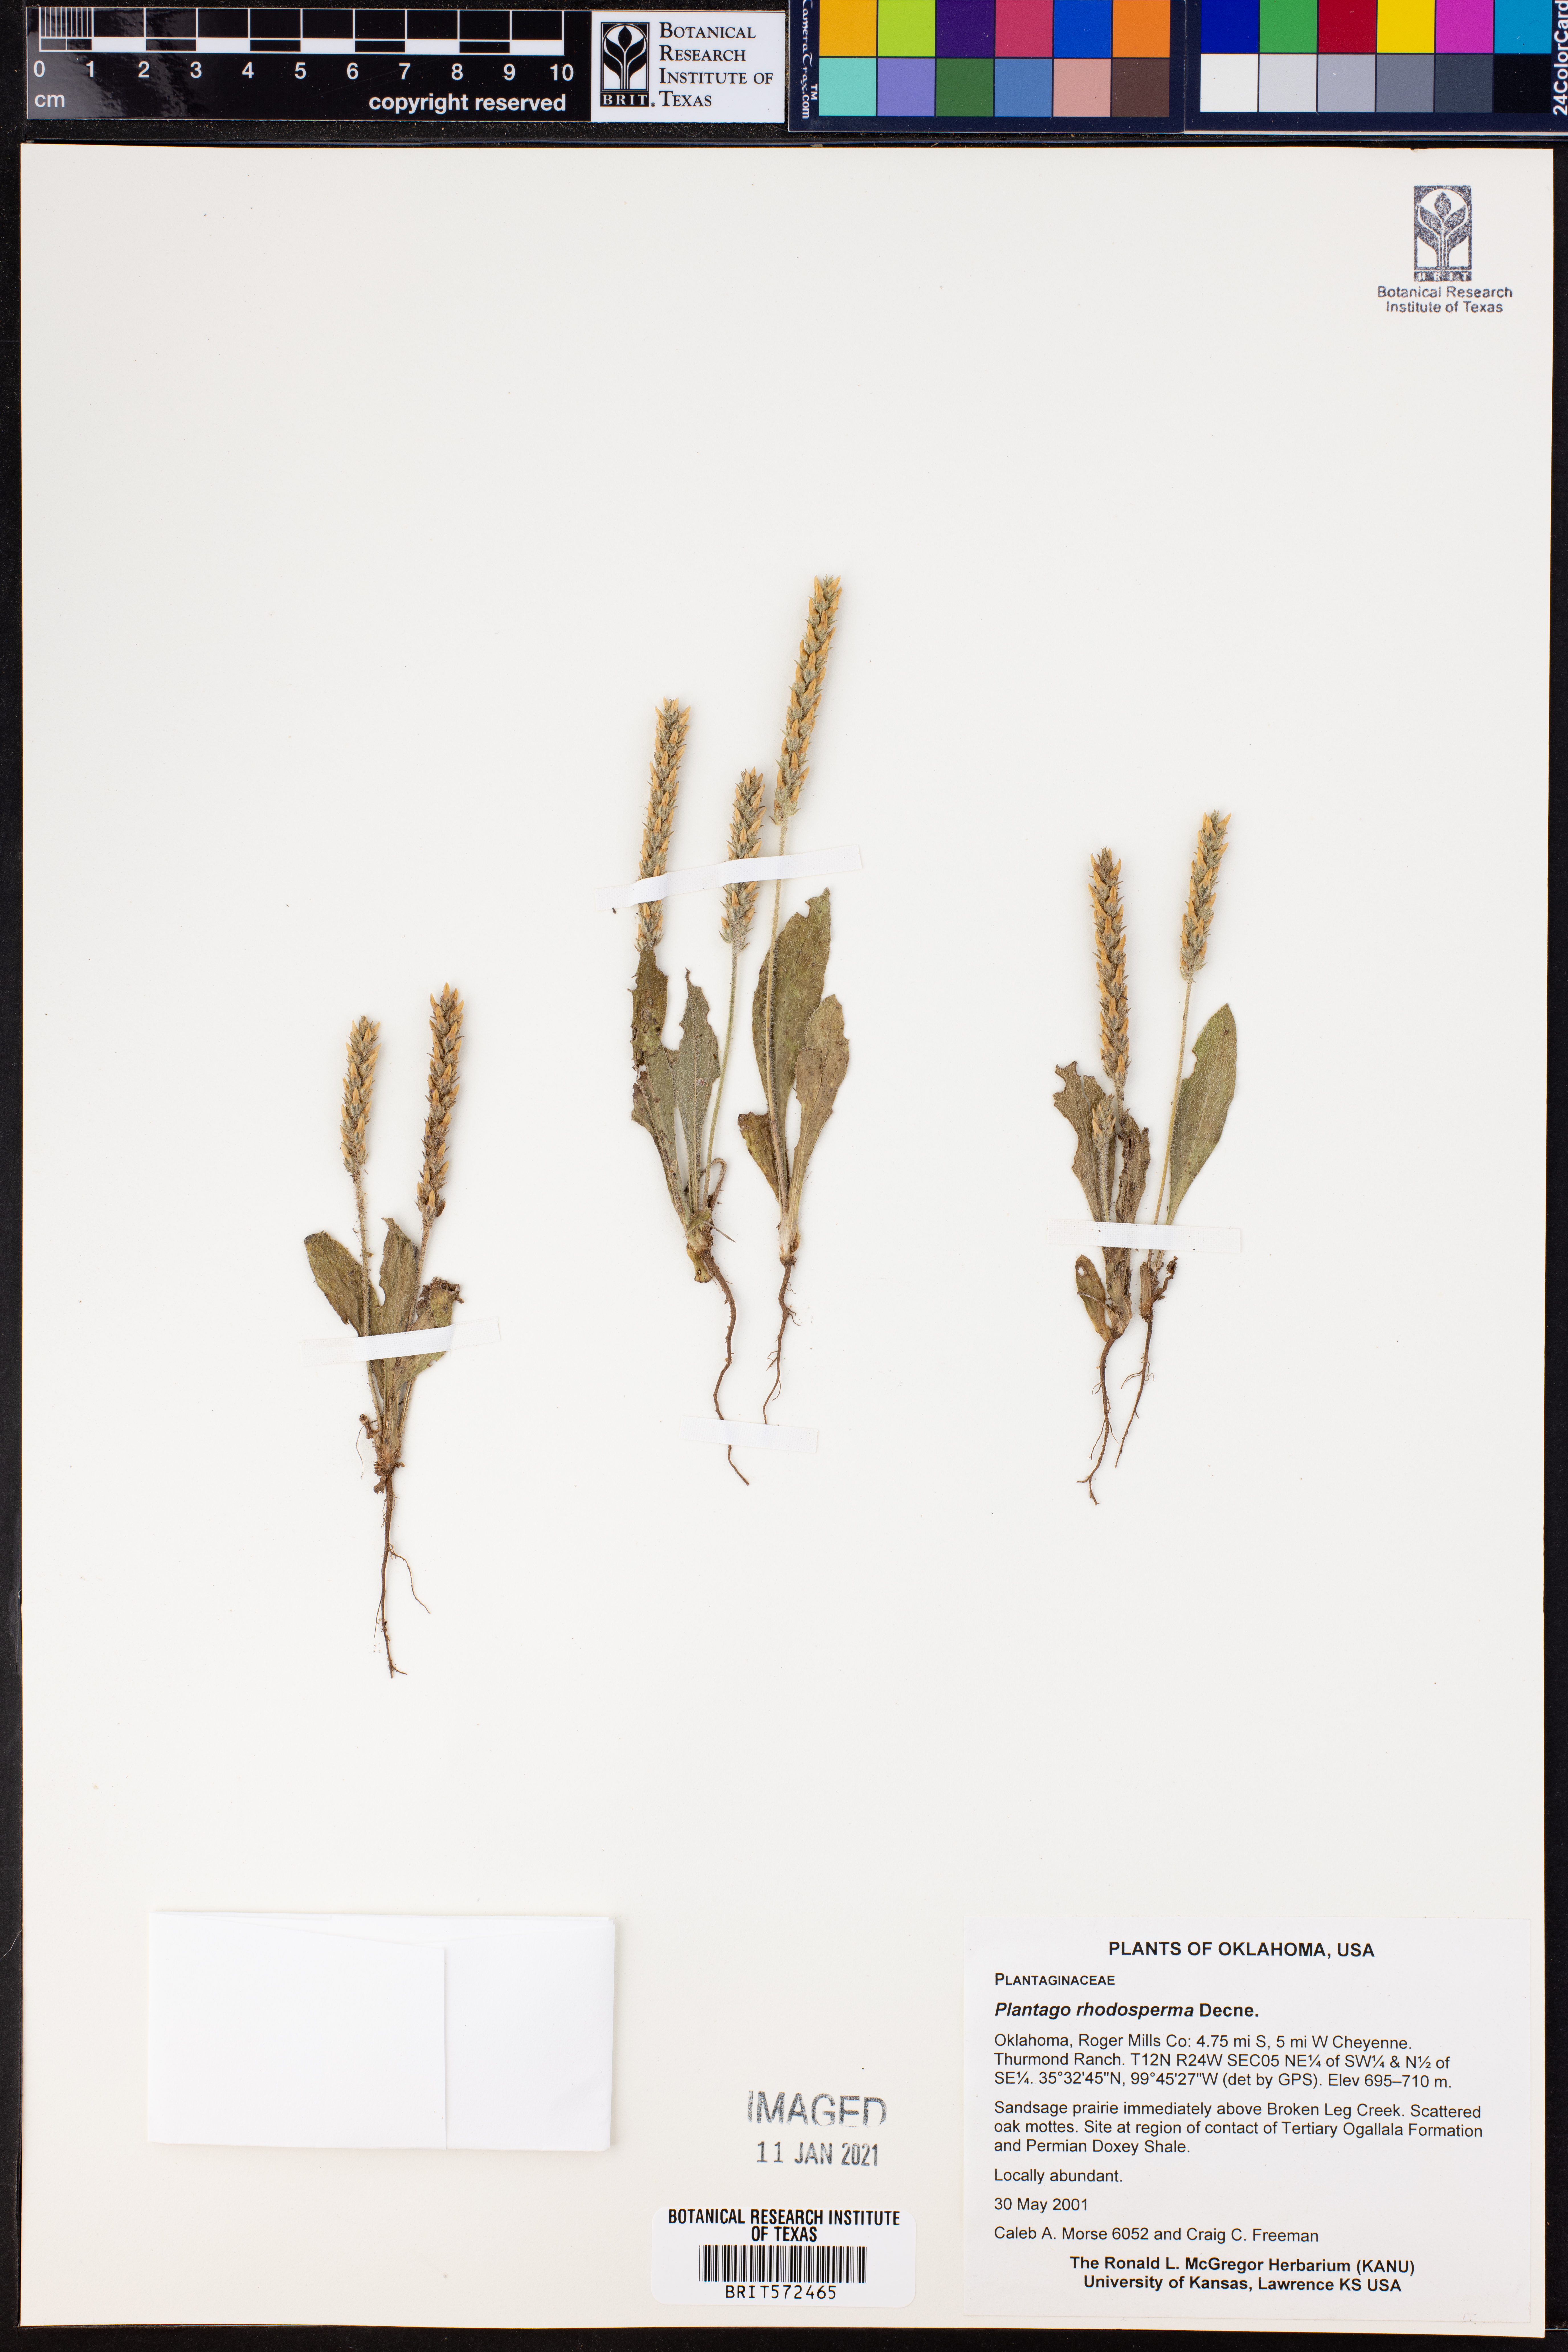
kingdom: Plantae
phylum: Tracheophyta
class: Magnoliopsida
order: Lamiales
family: Plantaginaceae
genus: Plantago
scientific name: Plantago rhodosperma
